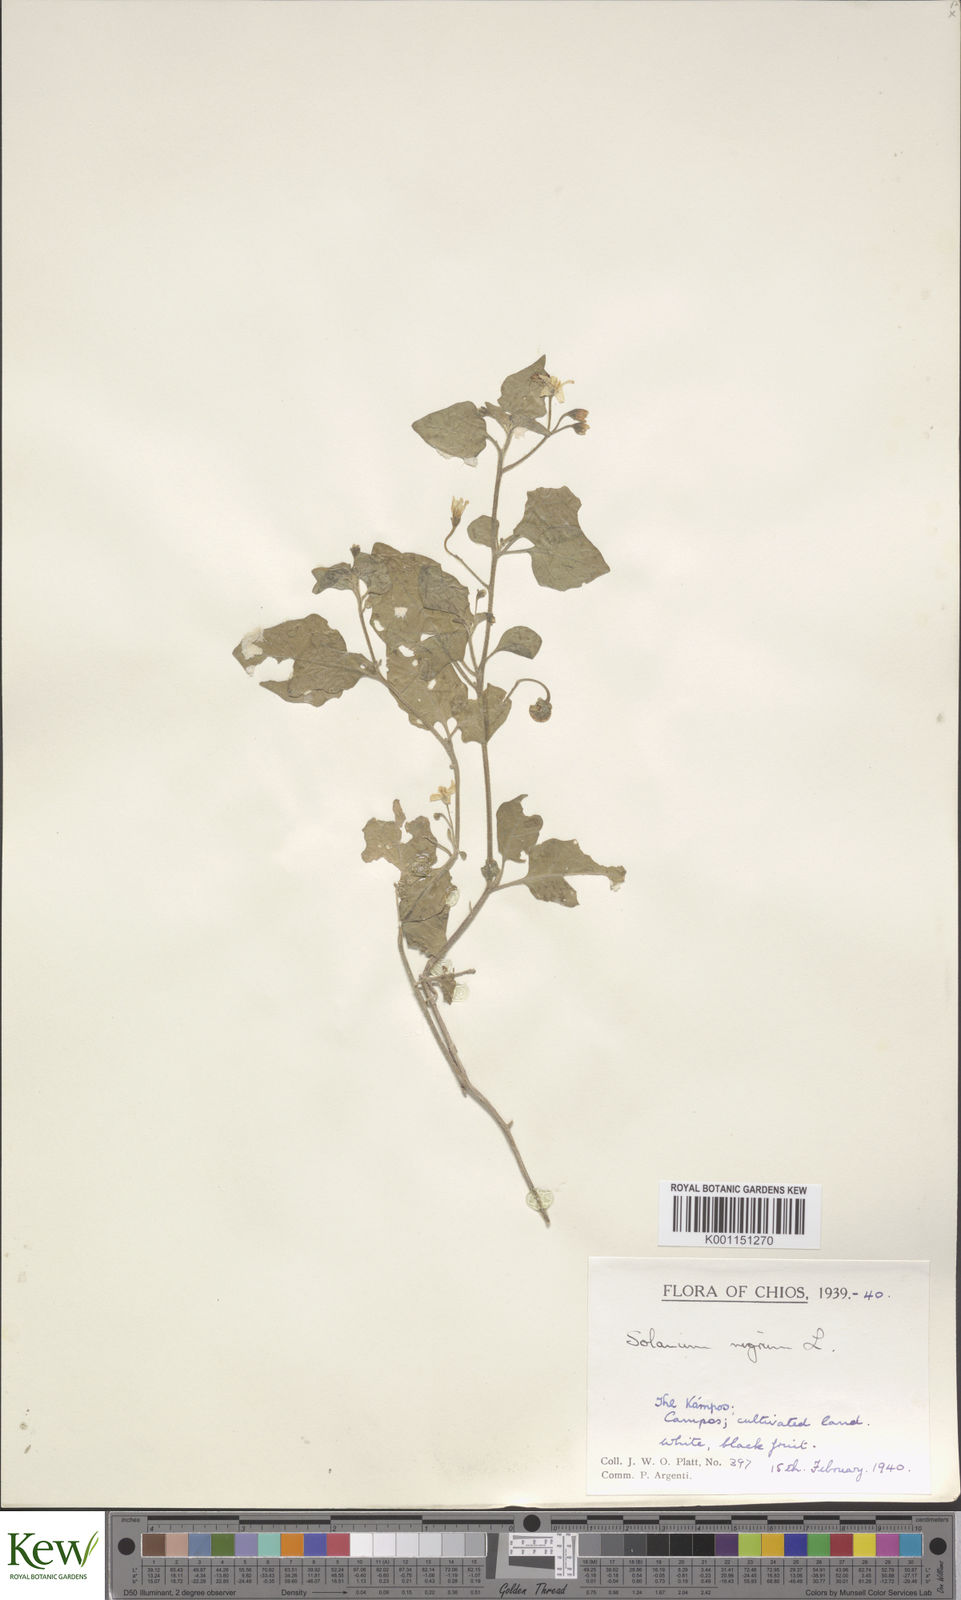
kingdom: Plantae
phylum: Tracheophyta
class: Magnoliopsida
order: Solanales
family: Solanaceae
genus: Solanum
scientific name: Solanum nigrum
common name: Black nightshade
